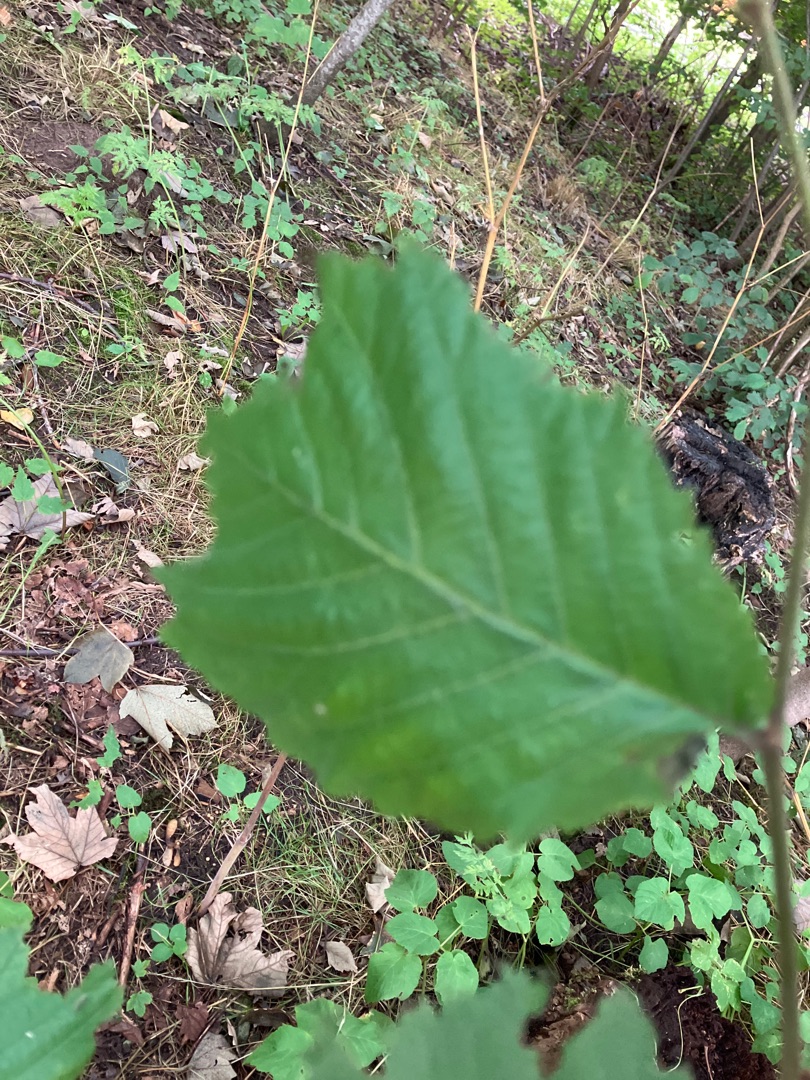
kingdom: Plantae
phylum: Tracheophyta
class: Magnoliopsida
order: Rosales
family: Ulmaceae
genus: Ulmus
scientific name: Ulmus glabra
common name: Skov-elm/storbladet elm
